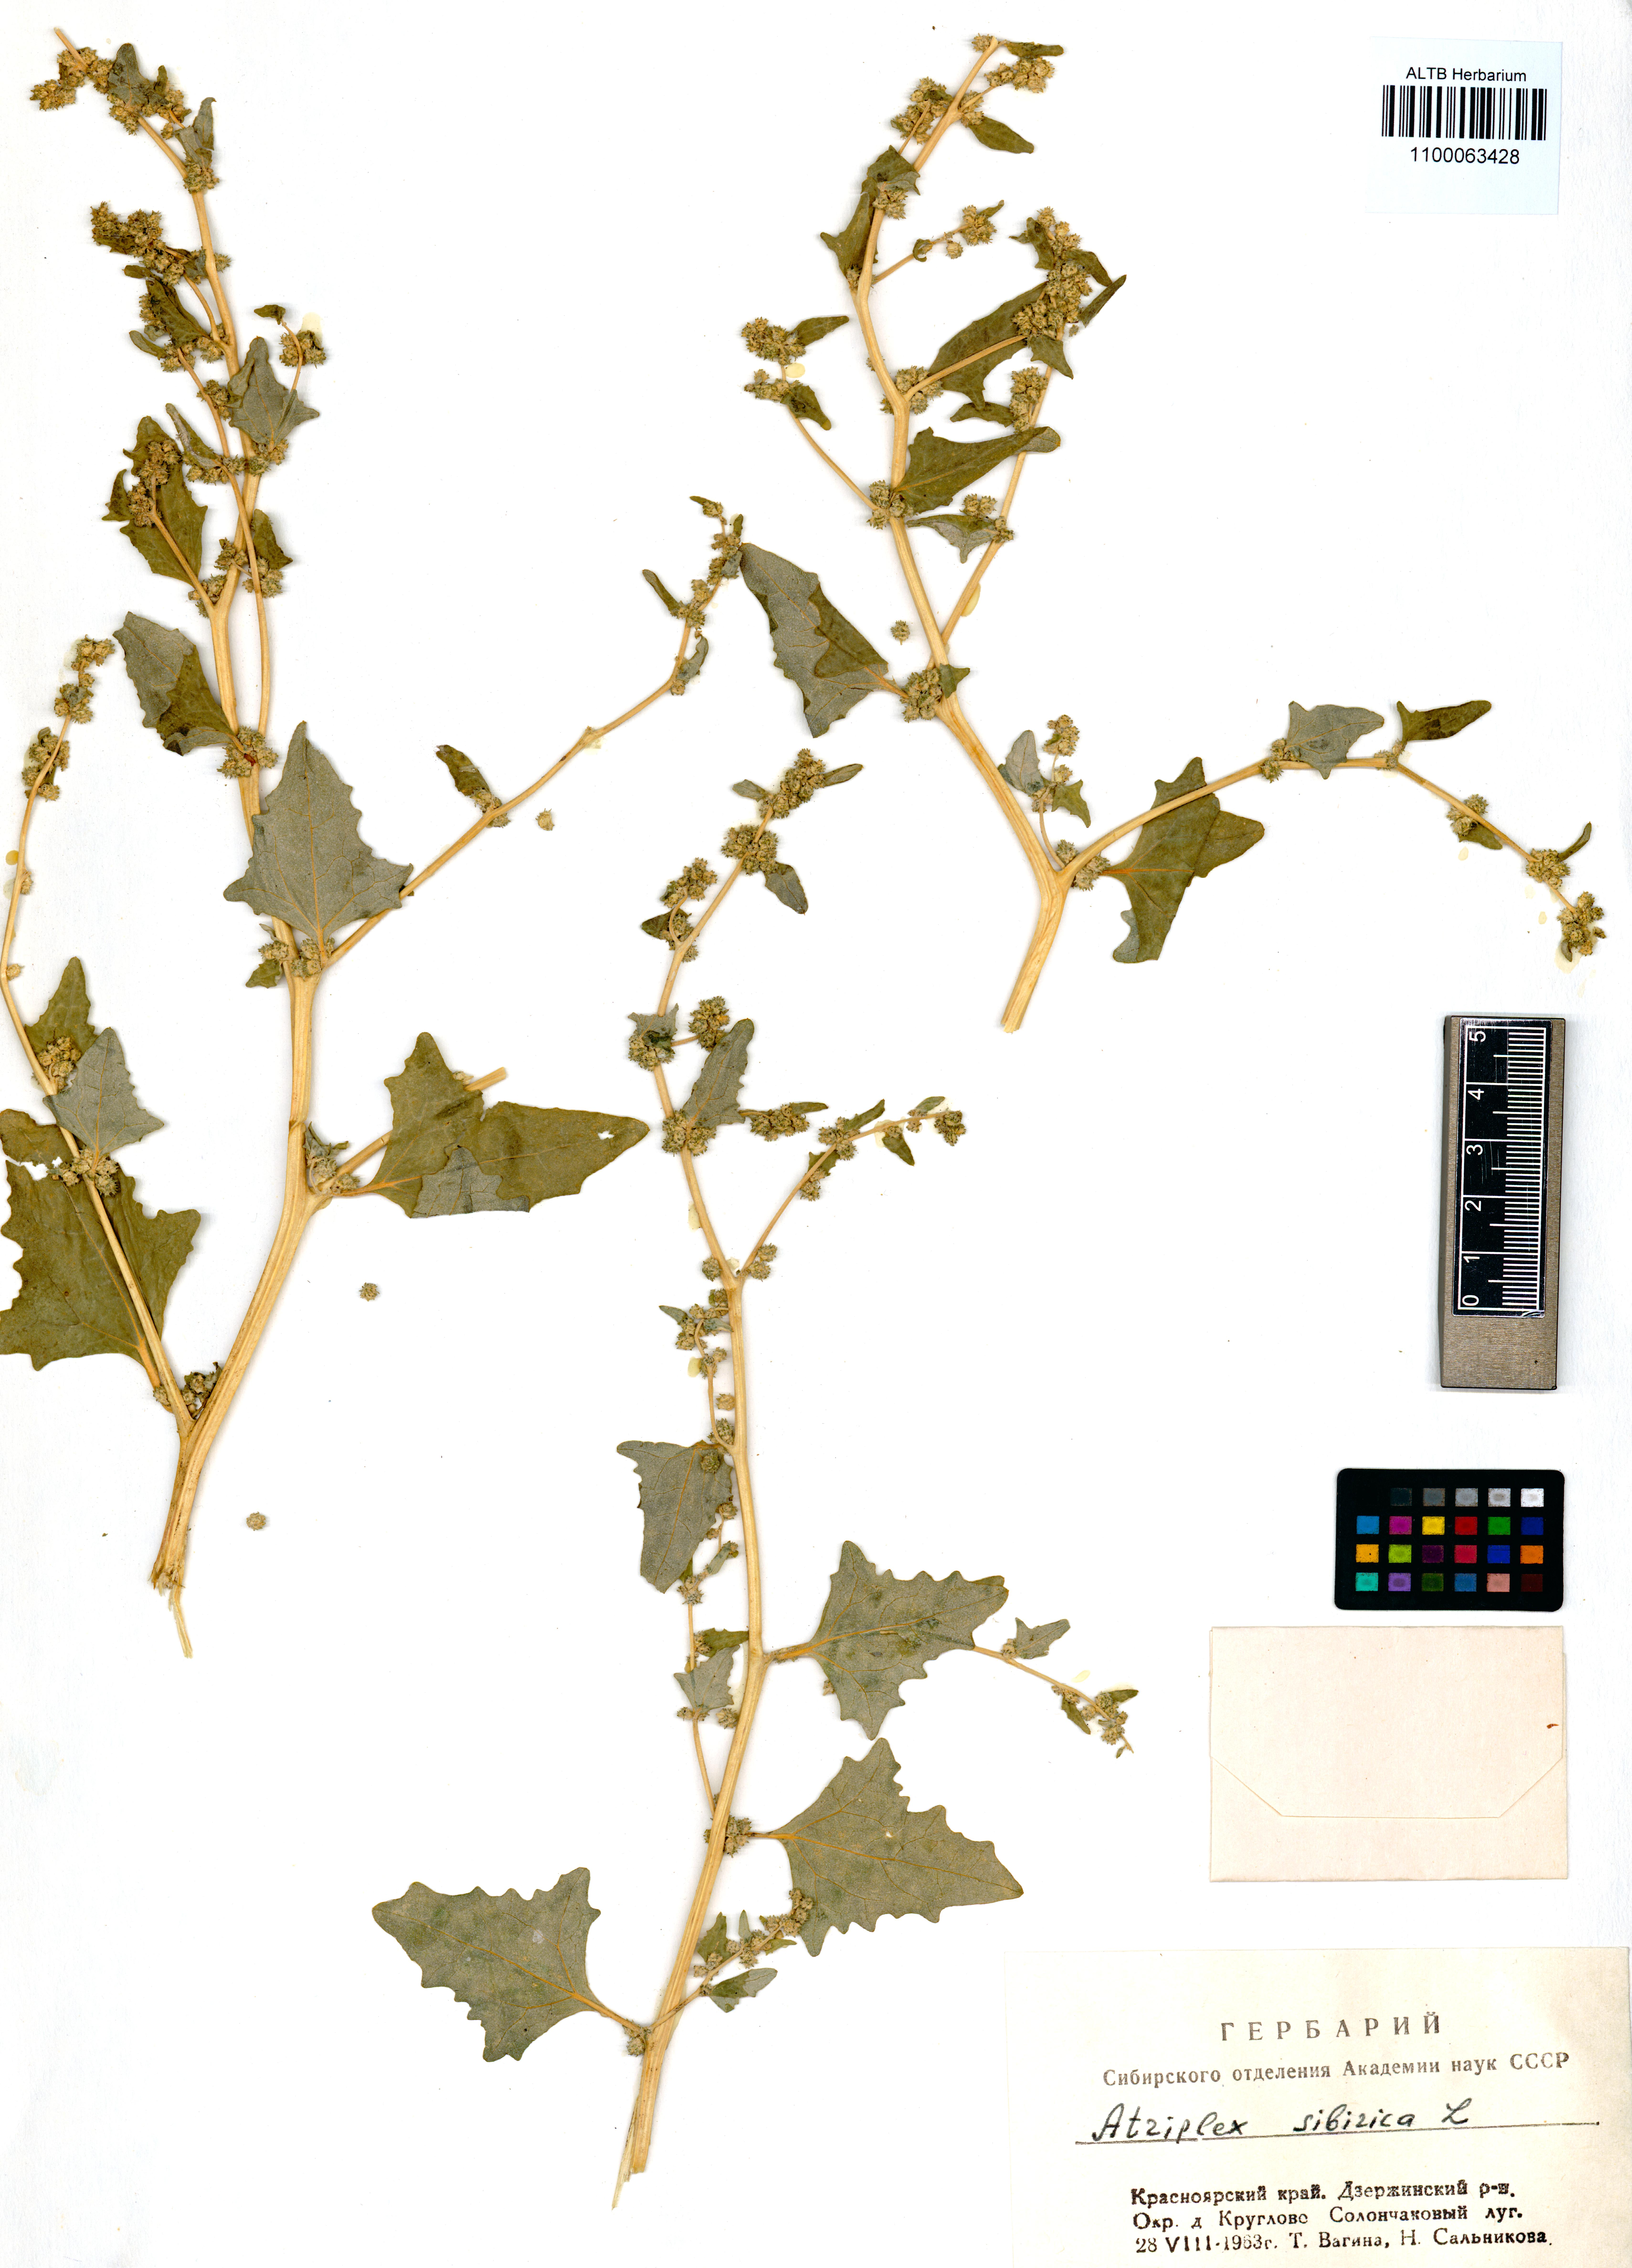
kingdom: Plantae
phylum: Tracheophyta
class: Magnoliopsida
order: Caryophyllales
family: Amaranthaceae
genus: Atriplex
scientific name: Atriplex sibirica
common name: Siberian saltbush
